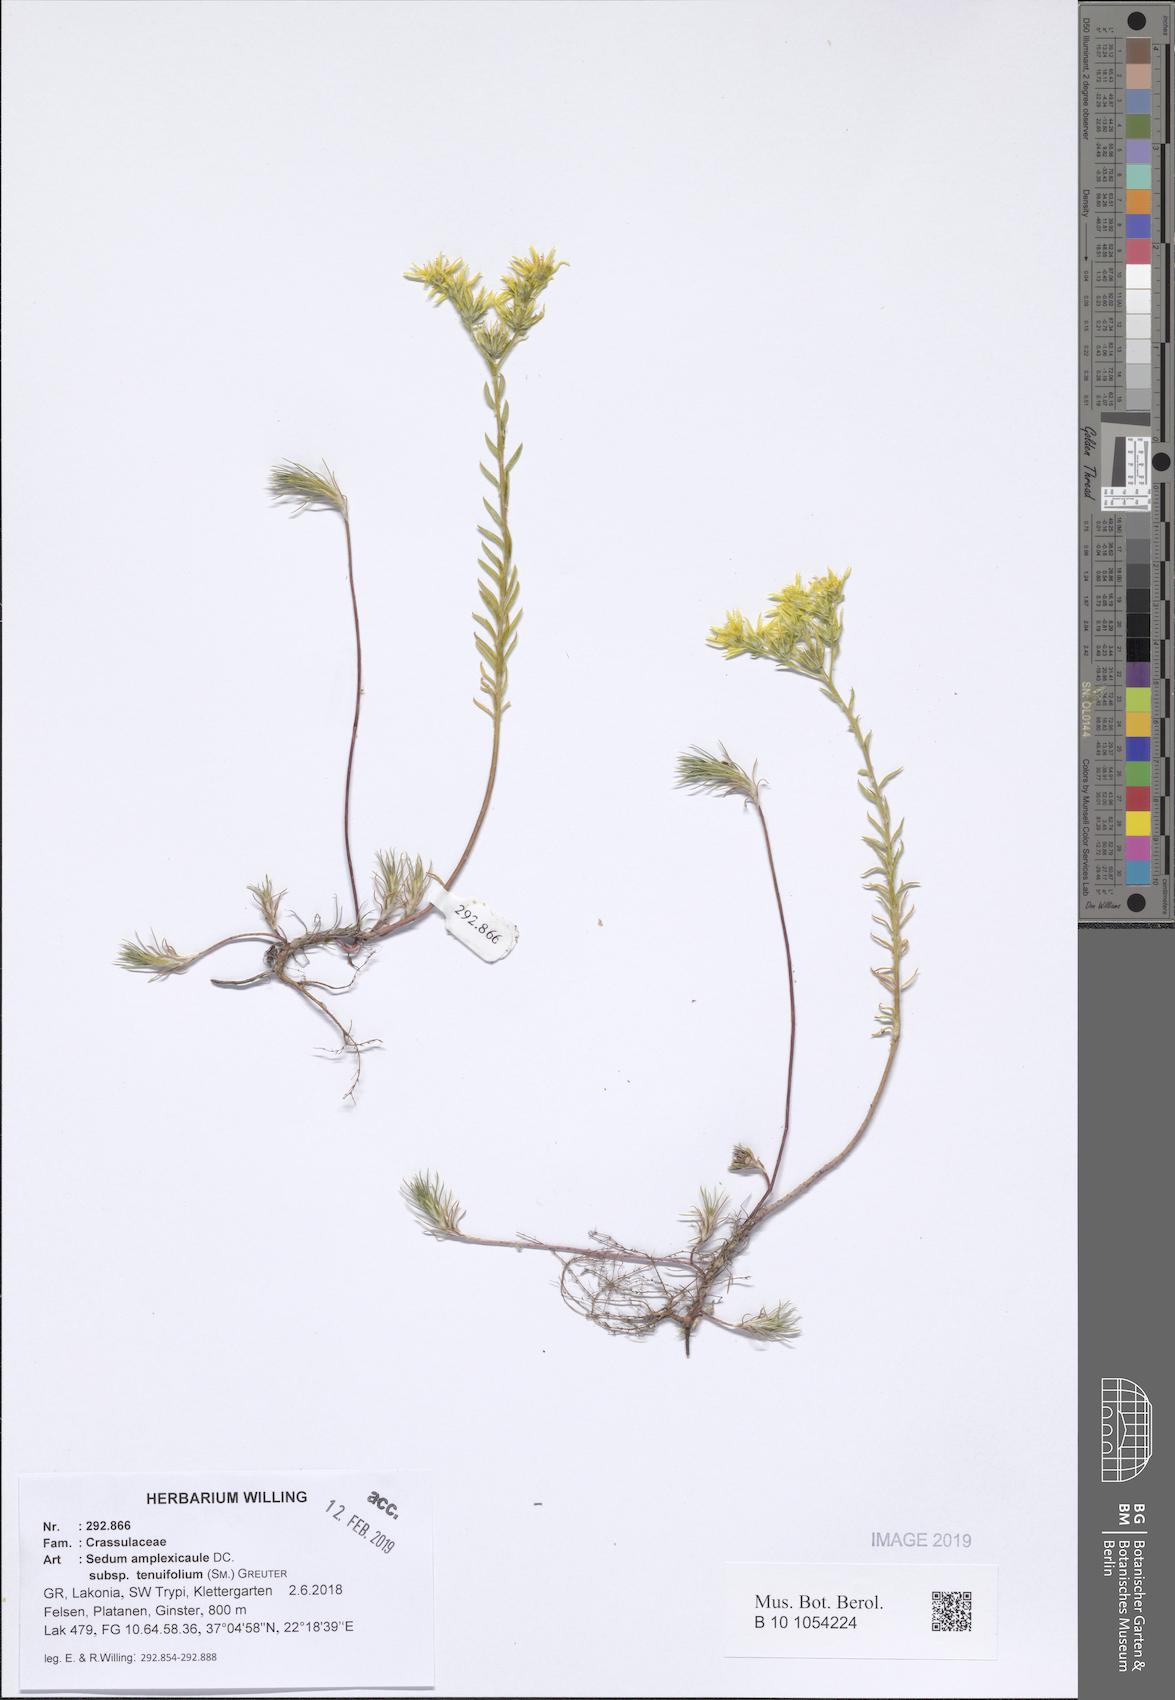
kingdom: Plantae
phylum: Tracheophyta
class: Magnoliopsida
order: Saxifragales
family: Crassulaceae
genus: Petrosedum
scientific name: Petrosedum tenuifolium
